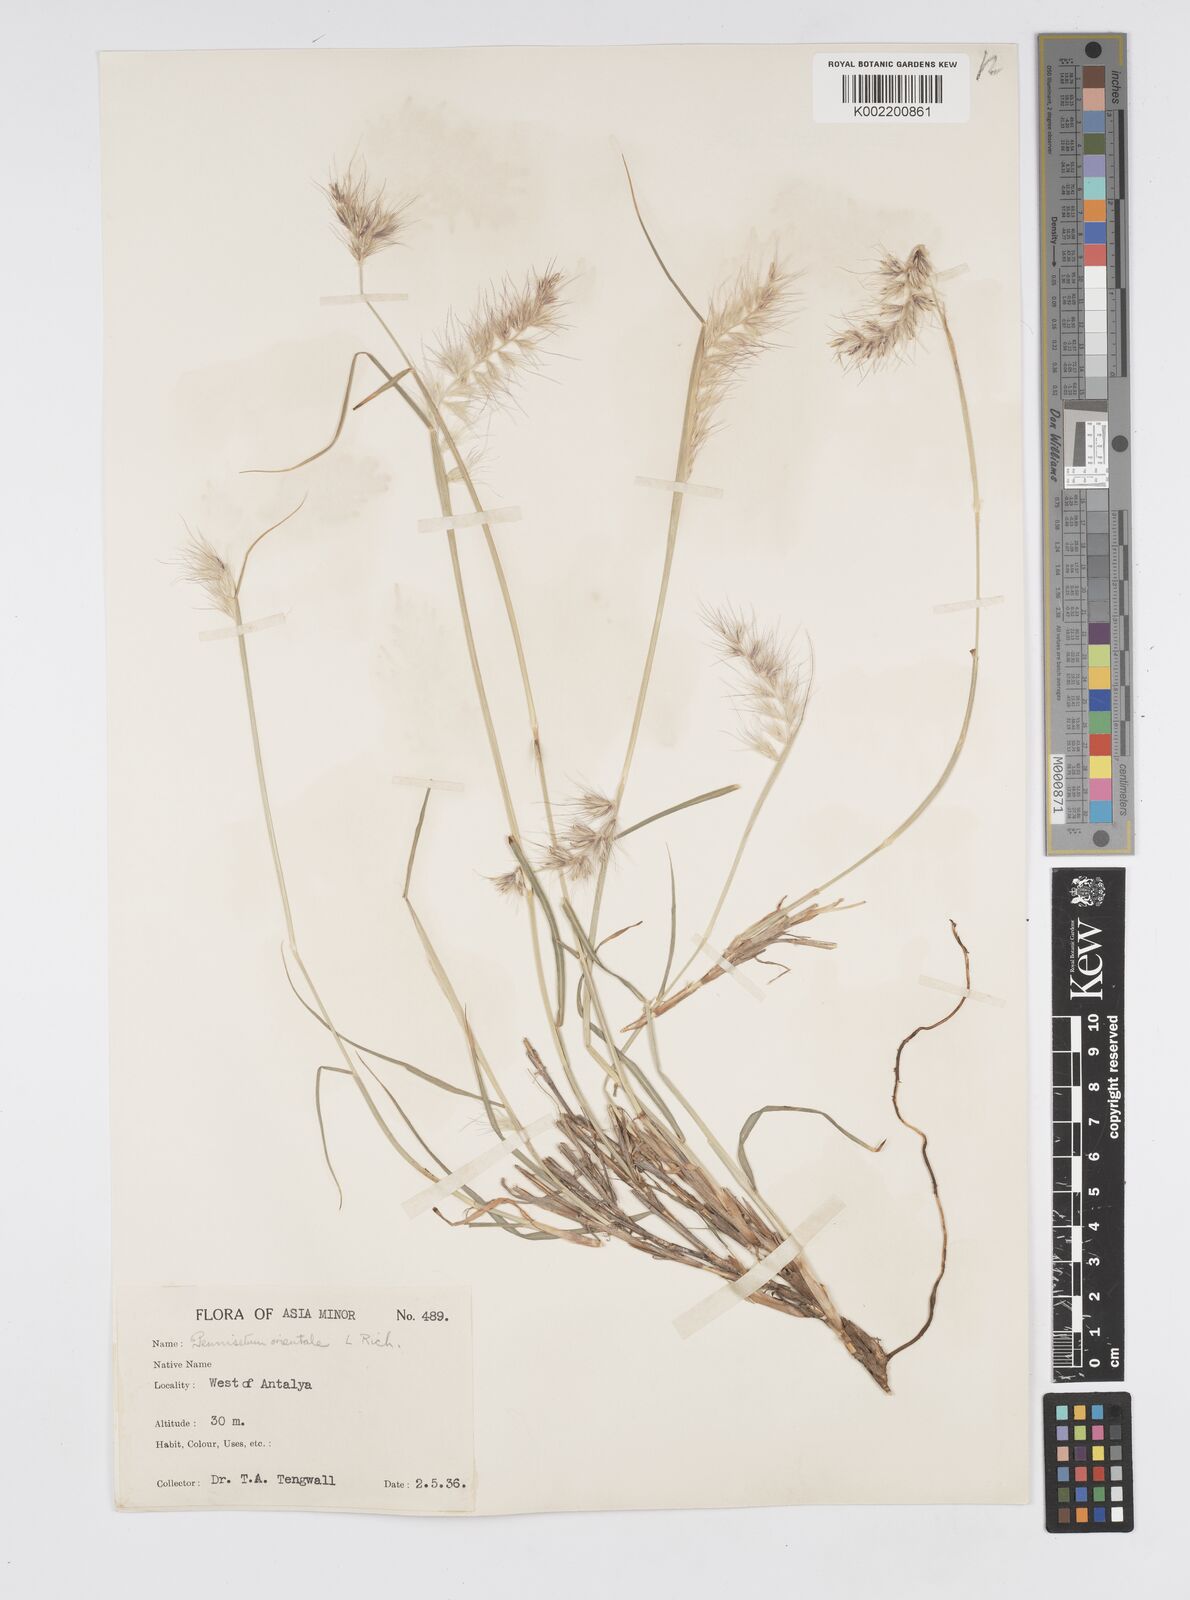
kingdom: Plantae
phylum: Tracheophyta
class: Liliopsida
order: Poales
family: Poaceae
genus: Cenchrus
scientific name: Cenchrus orientalis
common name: Oriental fountain grass
